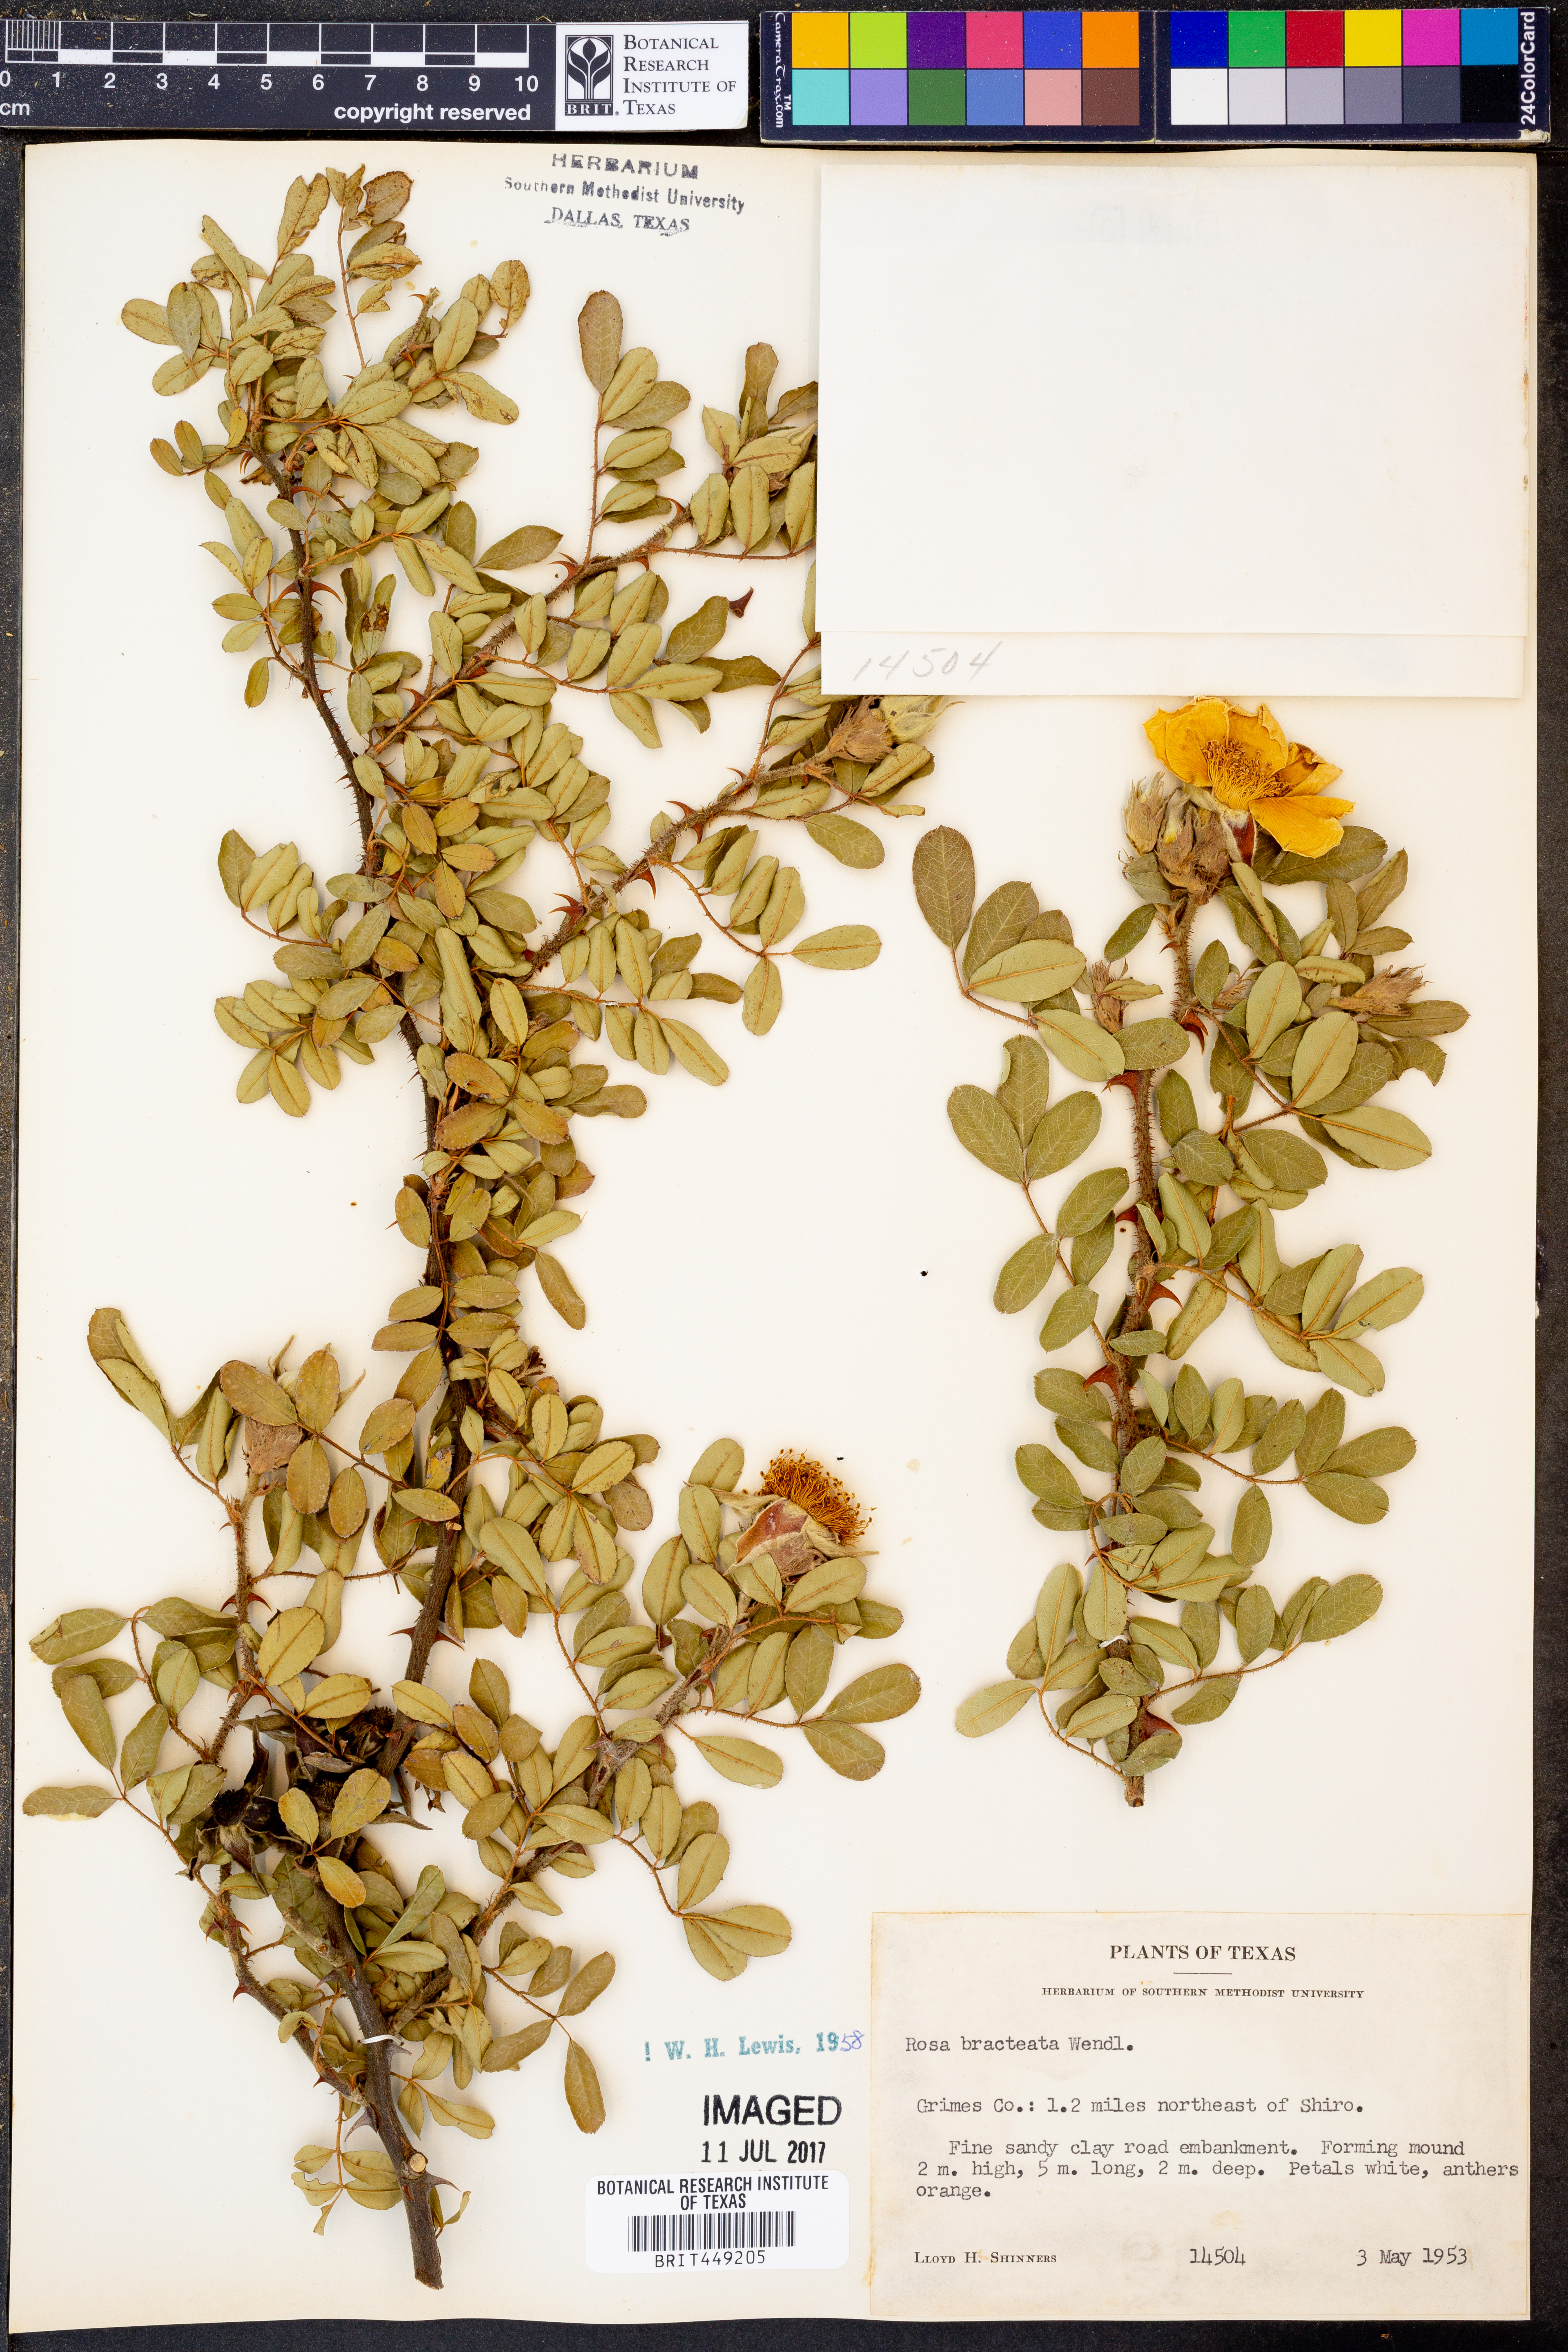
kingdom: Plantae
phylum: Tracheophyta
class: Magnoliopsida
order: Rosales
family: Rosaceae
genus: Rosa
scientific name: Rosa bracteata
